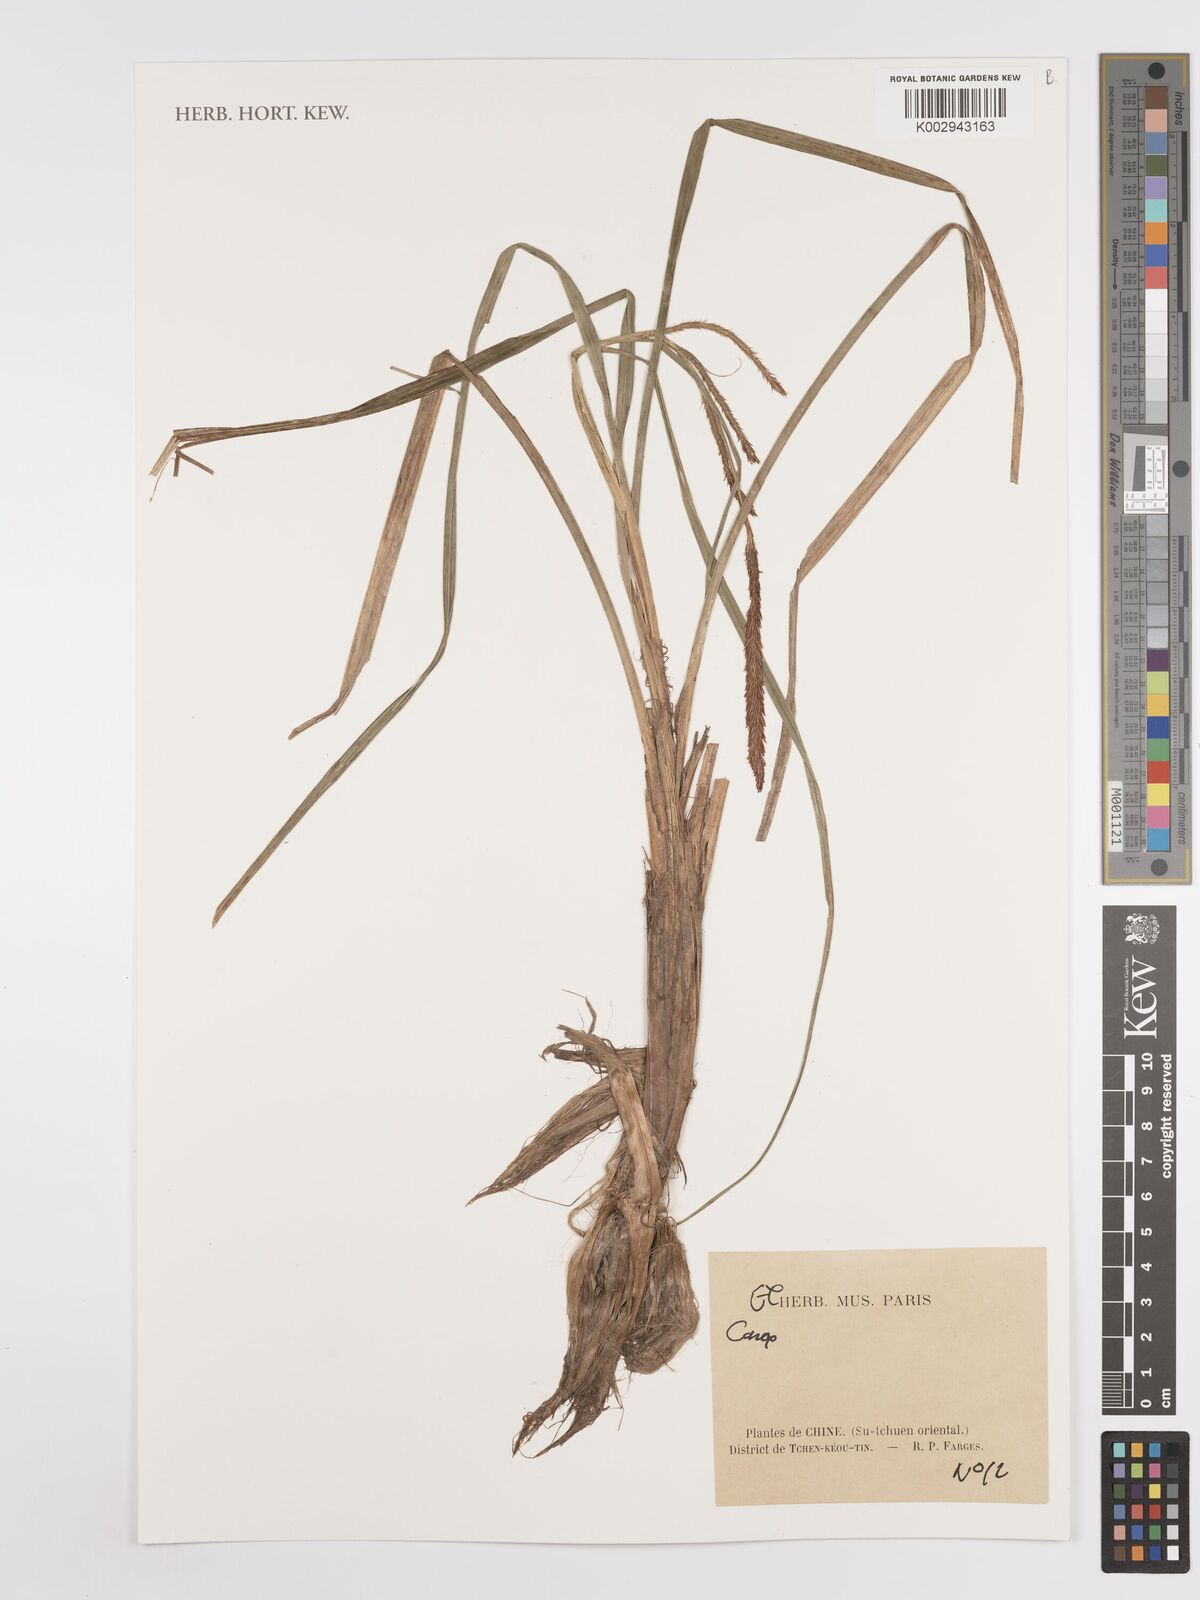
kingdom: Plantae
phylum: Tracheophyta
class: Liliopsida
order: Poales
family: Cyperaceae
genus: Carex
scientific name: Carex
